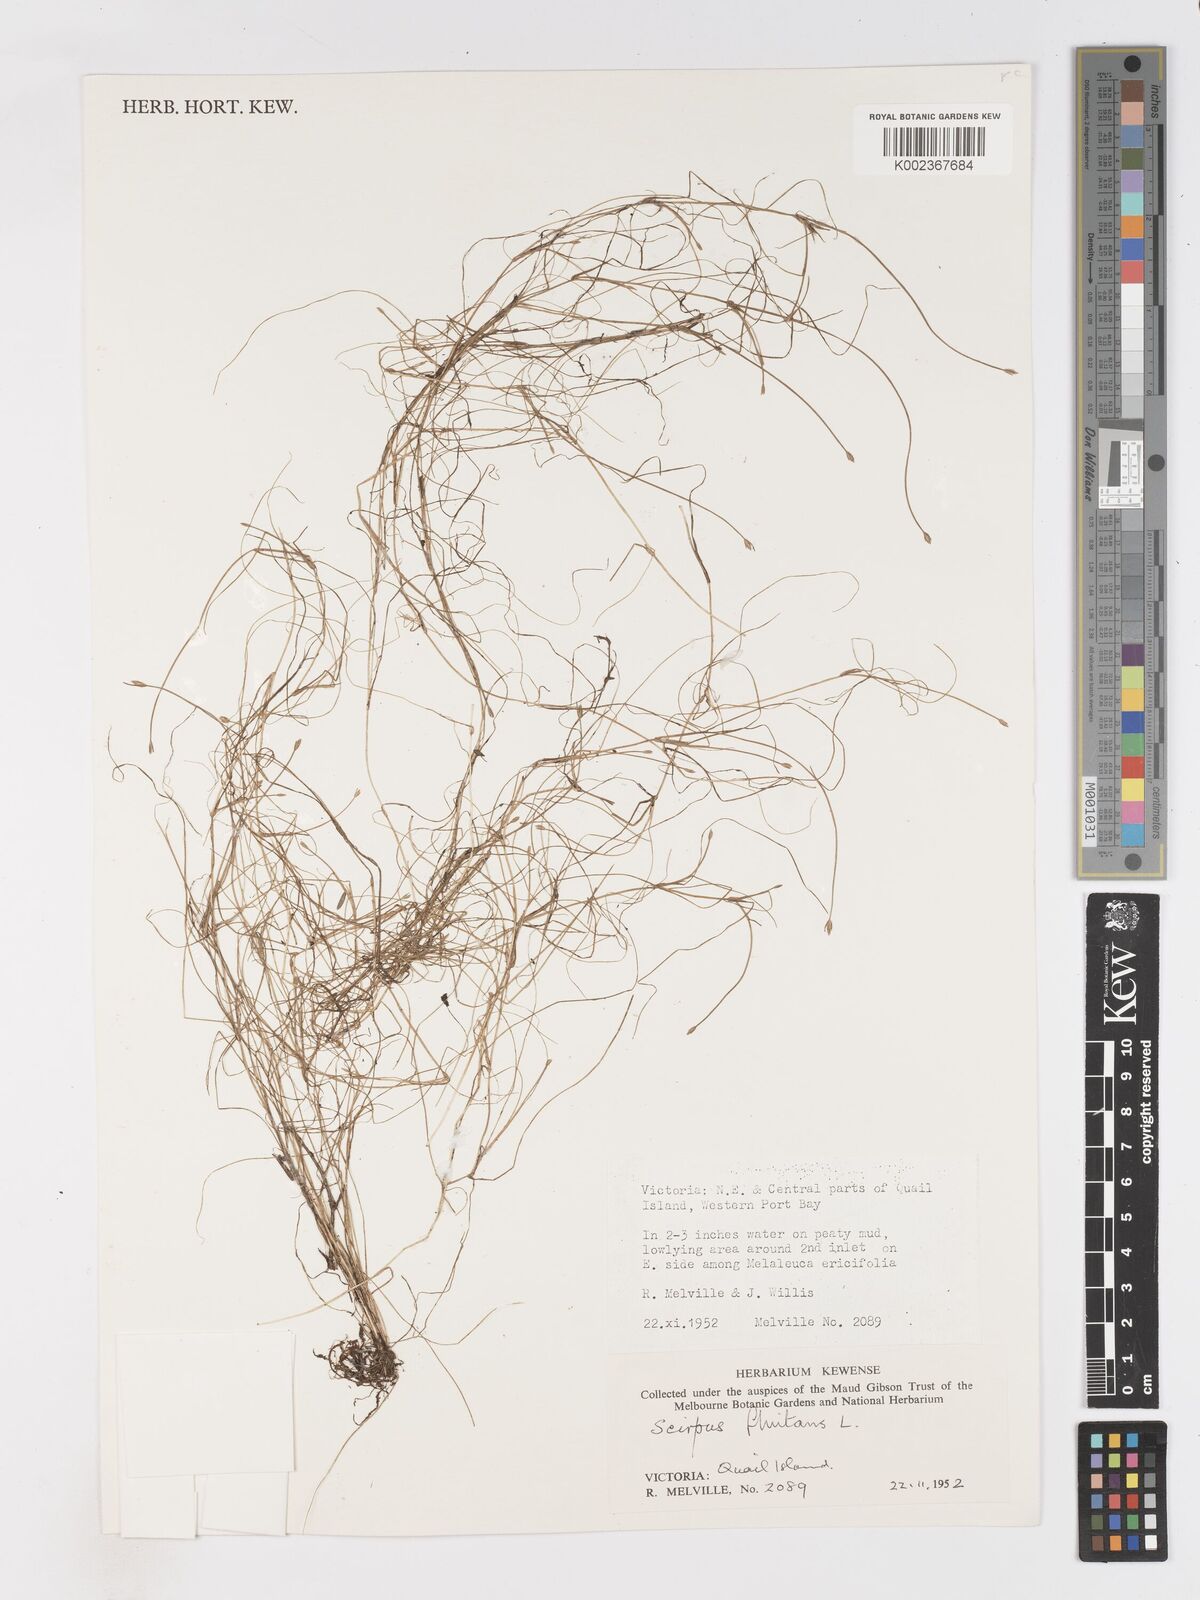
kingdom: Plantae
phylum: Tracheophyta
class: Liliopsida
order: Poales
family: Cyperaceae
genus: Isolepis
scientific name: Isolepis fluitans
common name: Floating club-rush
